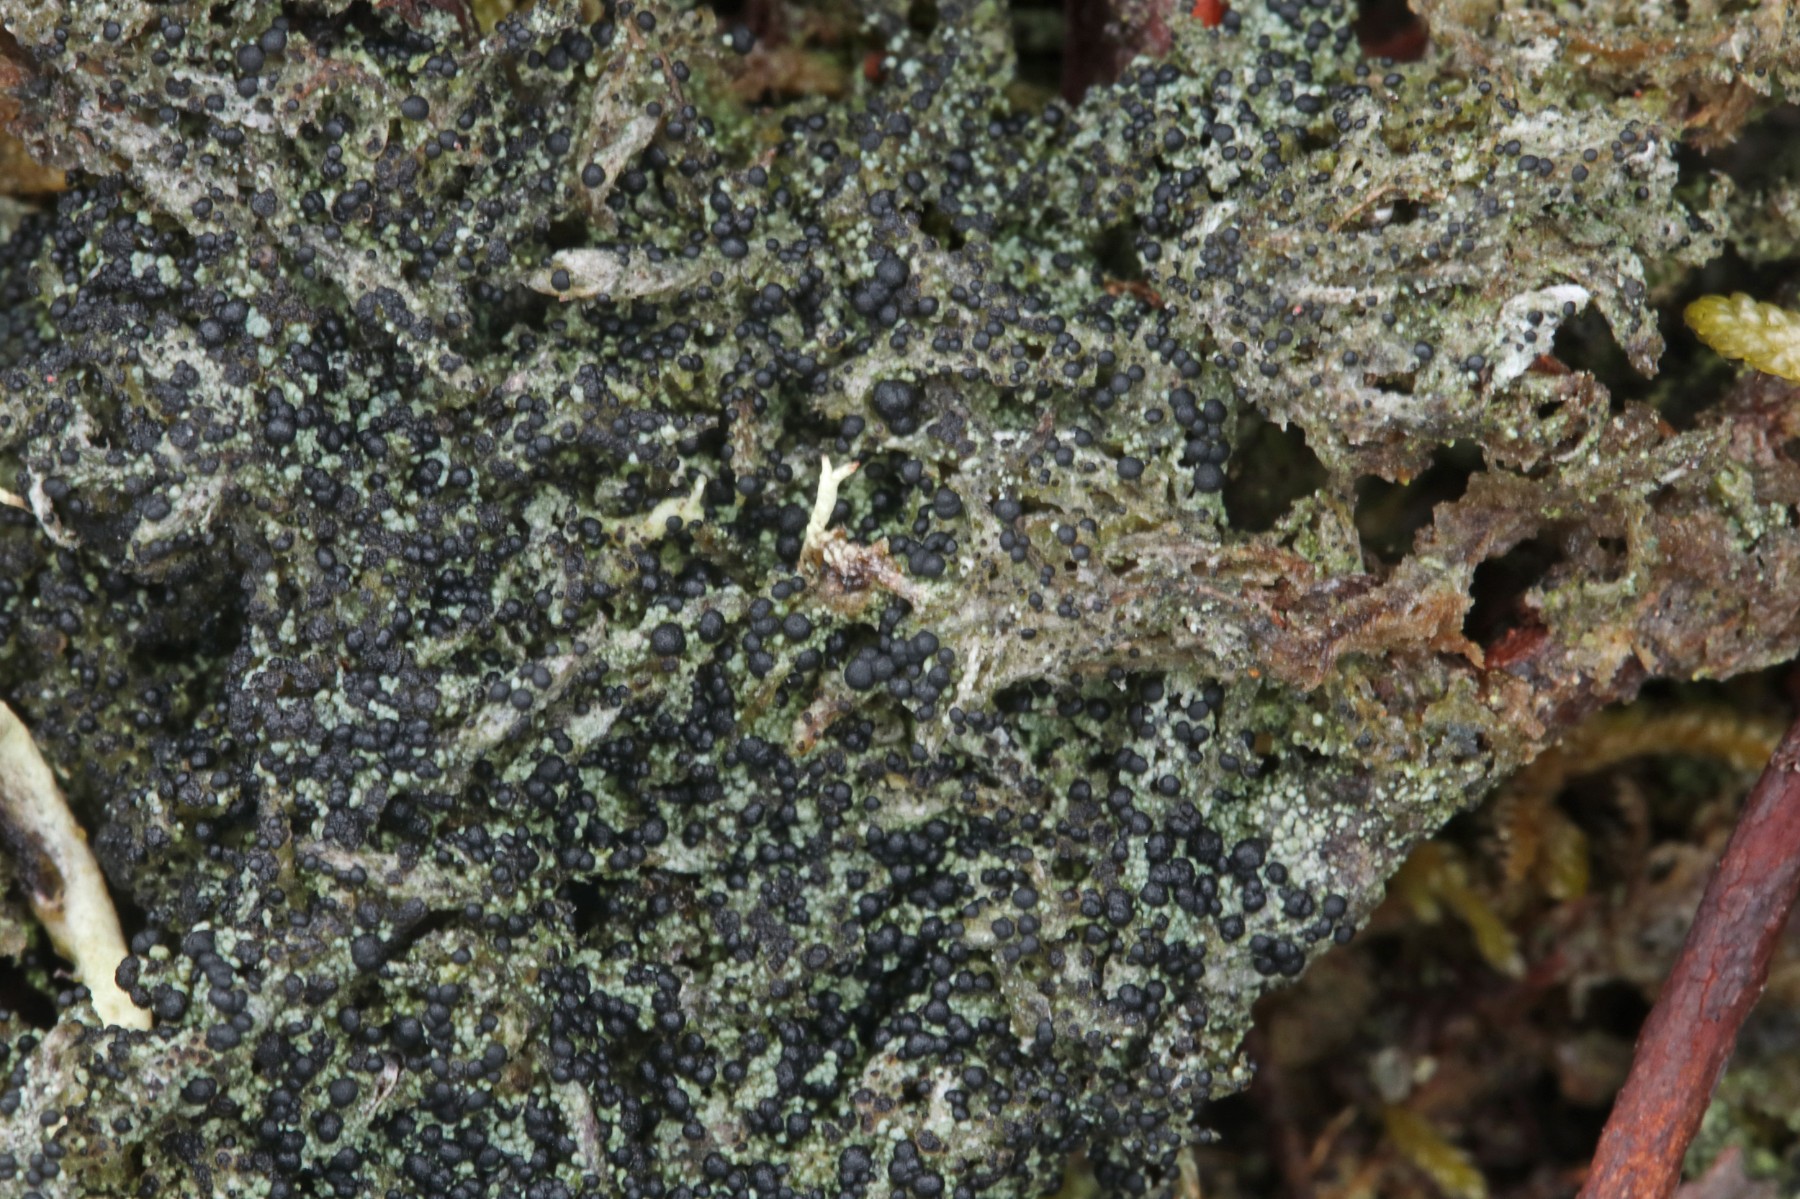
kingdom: Fungi
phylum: Ascomycota
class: Lecanoromycetes
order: Lecanorales
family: Byssolomataceae
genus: Micarea
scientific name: Micarea lignaria
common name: tørve-knaplav
